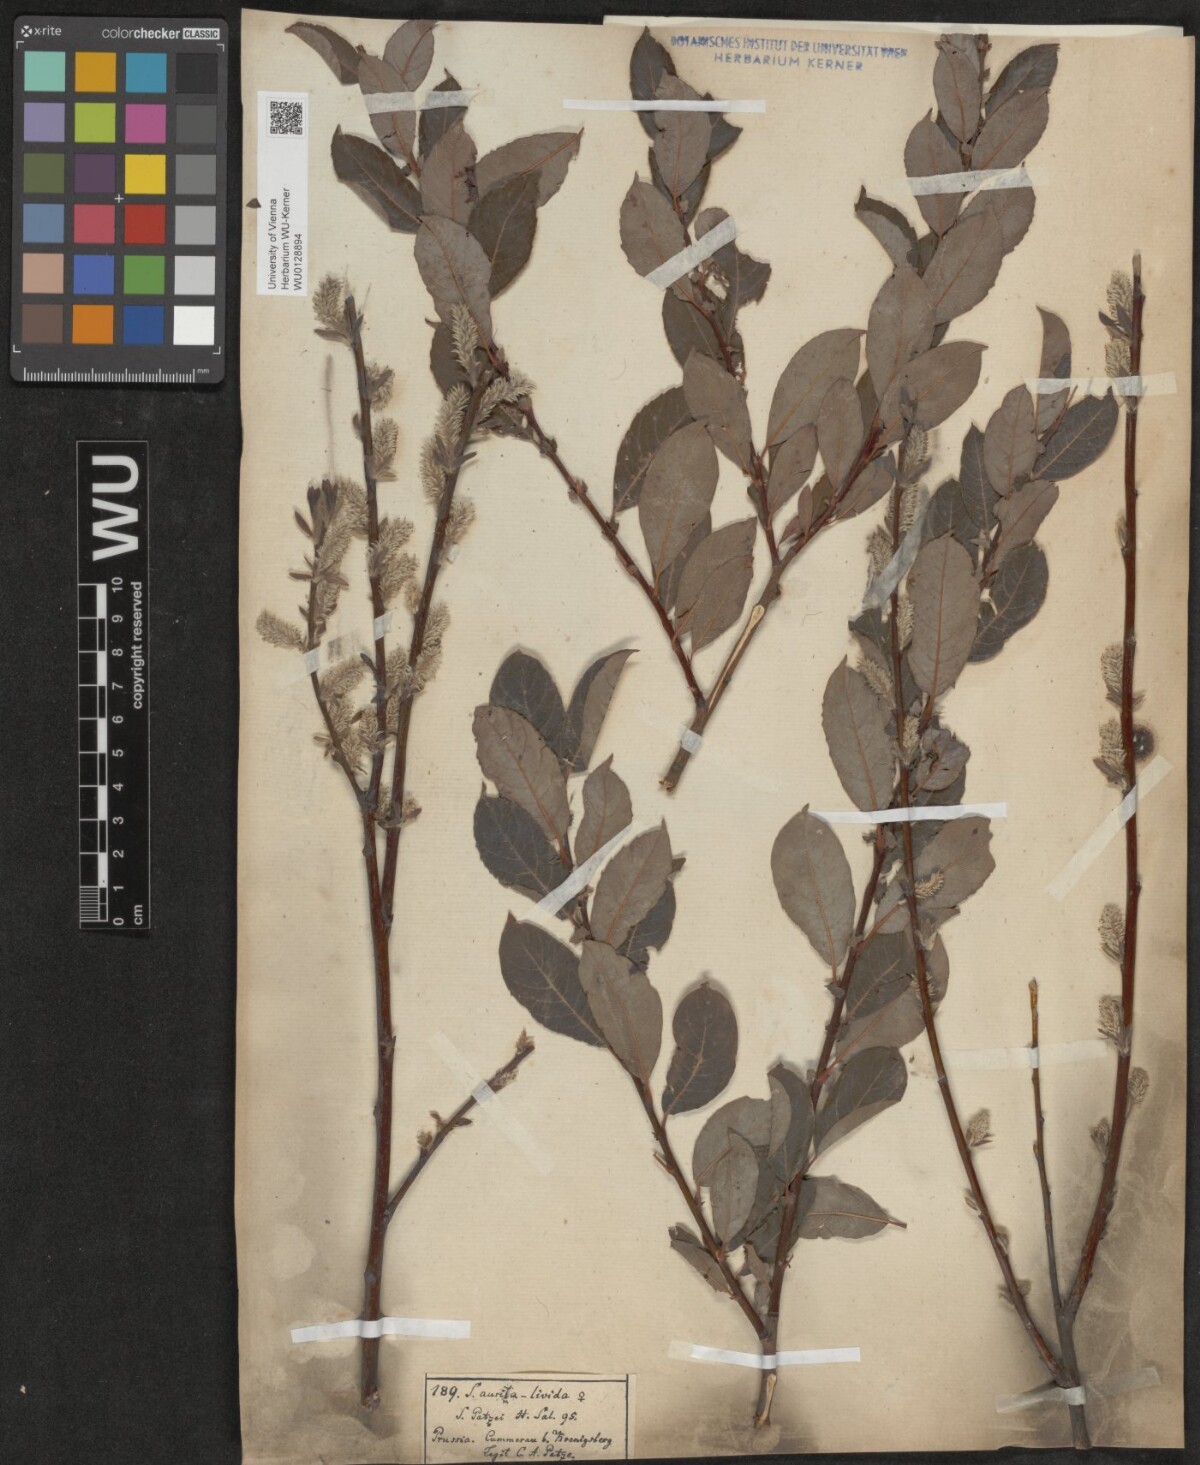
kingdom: Plantae
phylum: Tracheophyta
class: Magnoliopsida
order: Malpighiales
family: Salicaceae
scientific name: Salicaceae
